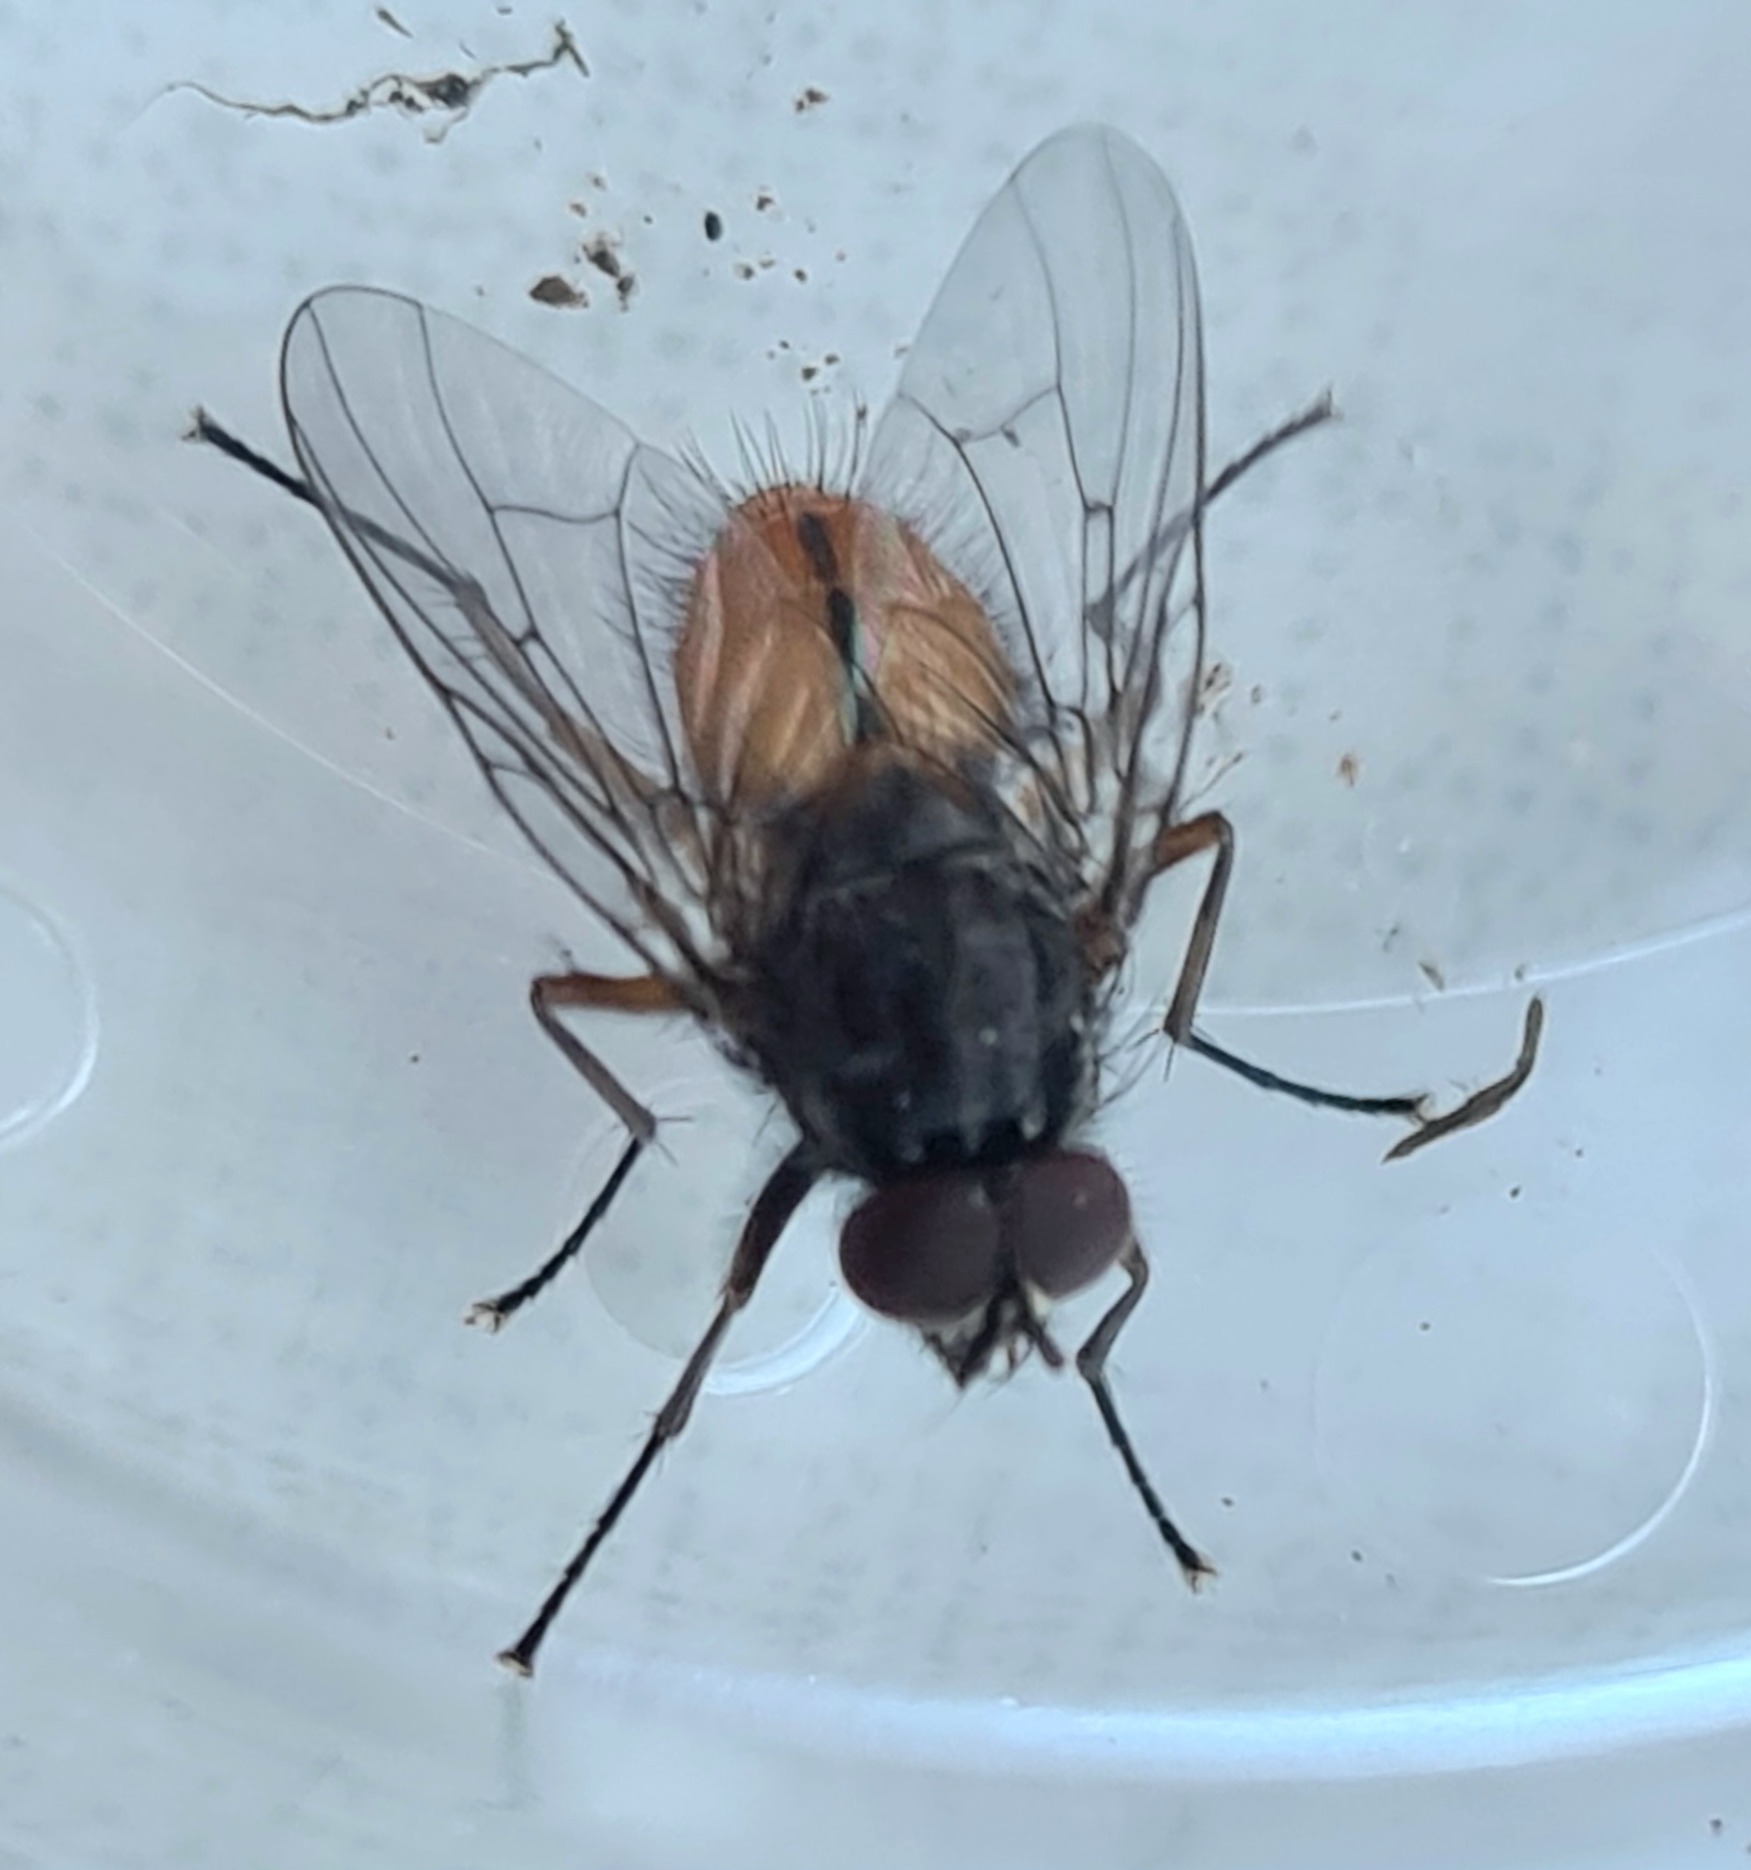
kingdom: Animalia
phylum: Arthropoda
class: Insecta
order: Diptera
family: Muscidae
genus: Phaonia
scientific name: Phaonia subventa
